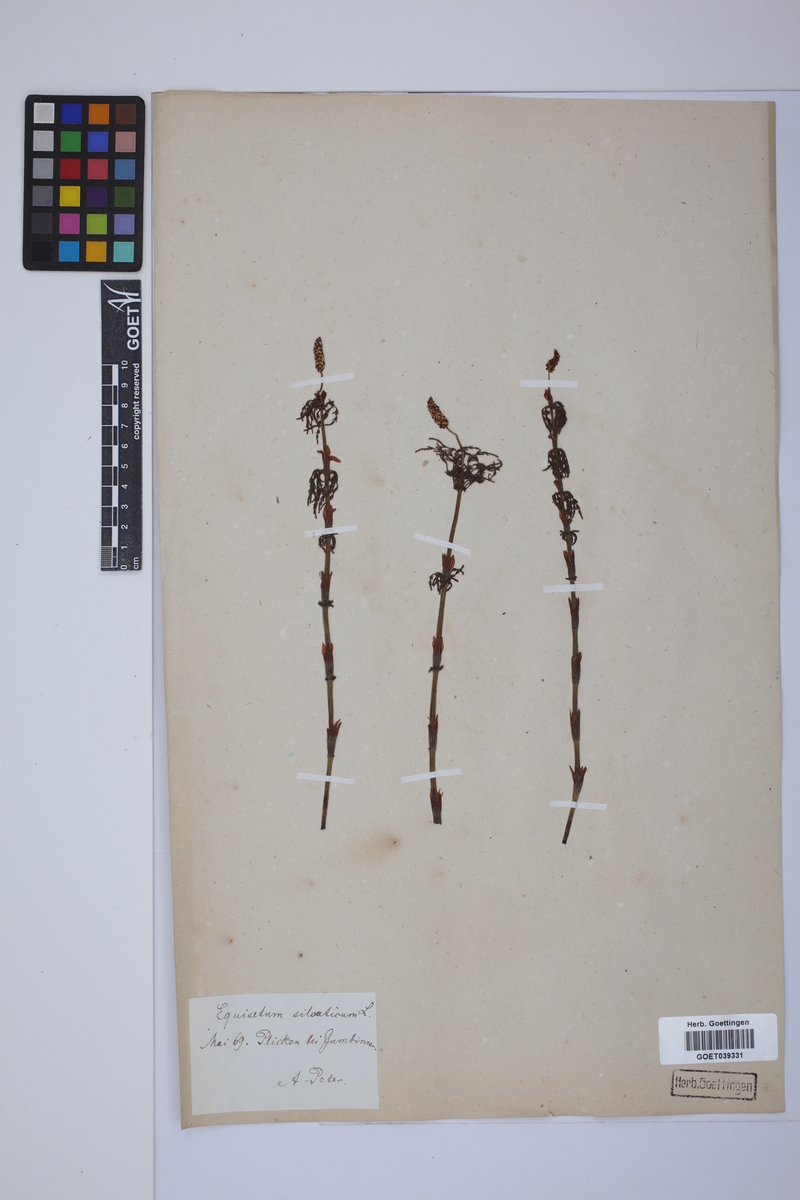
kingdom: Plantae
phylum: Tracheophyta
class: Polypodiopsida
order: Equisetales
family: Equisetaceae
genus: Equisetum
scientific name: Equisetum sylvaticum
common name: Wood horsetail
